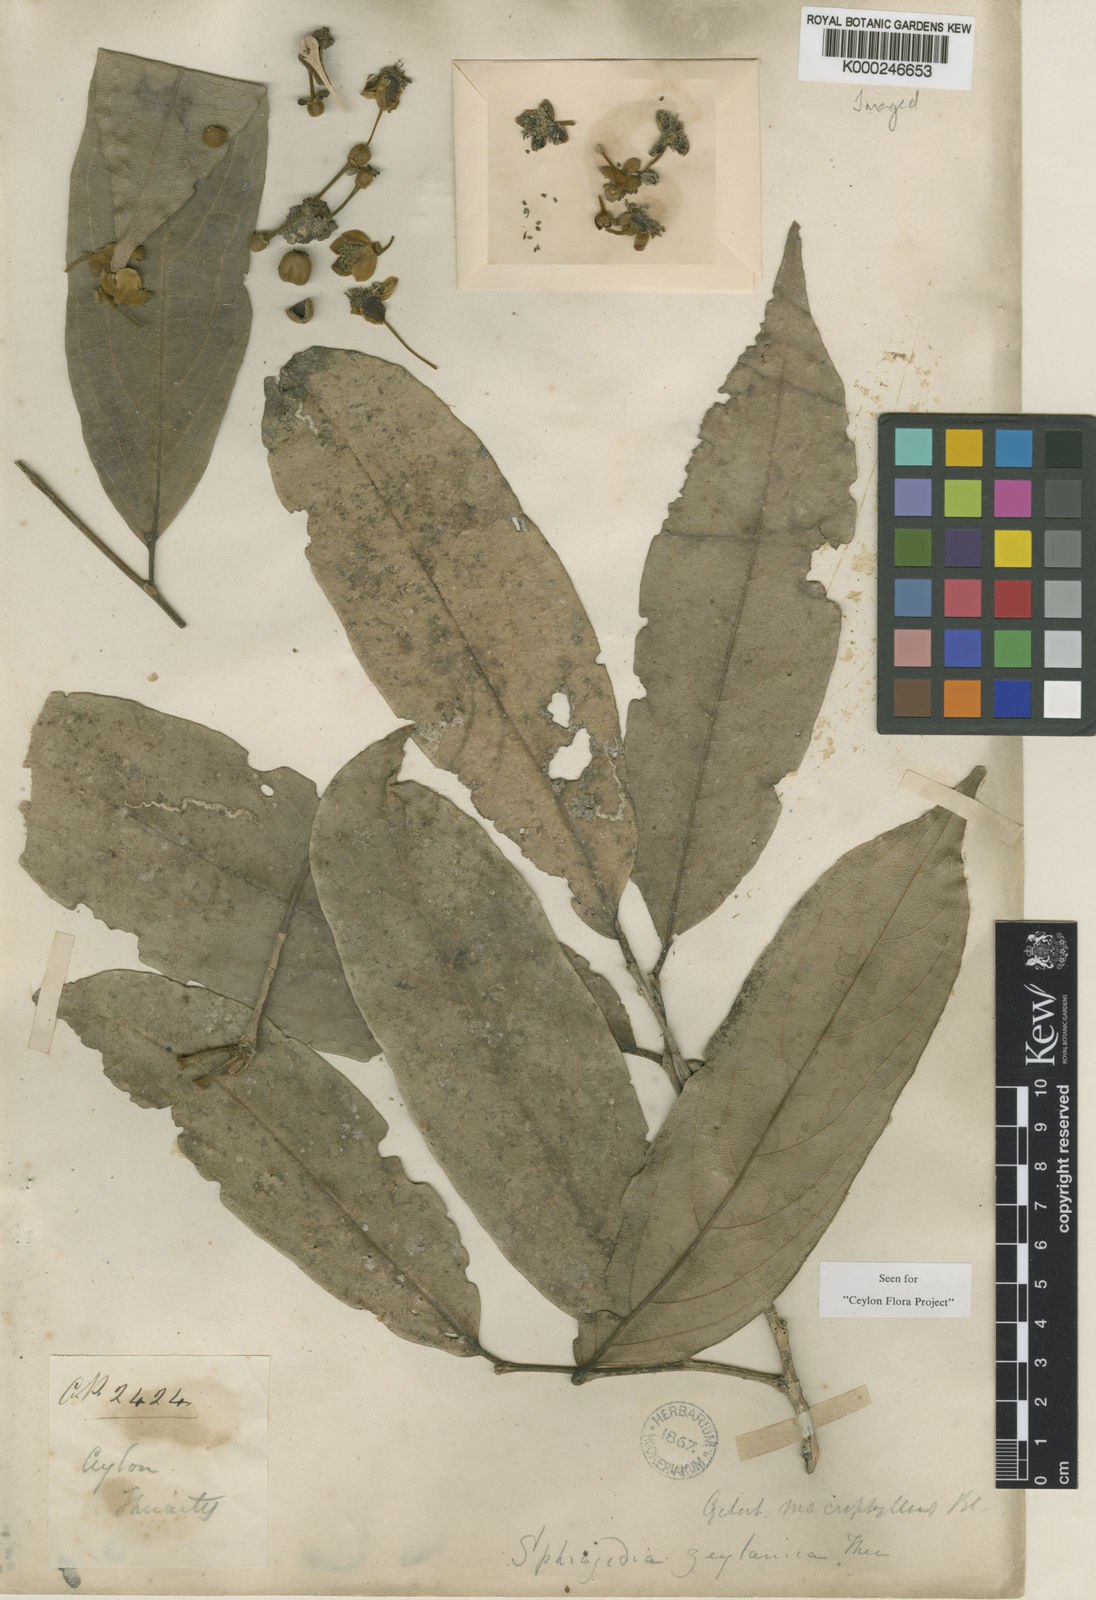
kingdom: Plantae
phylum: Tracheophyta
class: Magnoliopsida
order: Malpighiales
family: Putranjivaceae
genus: Drypetes
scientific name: Drypetes longifolia
